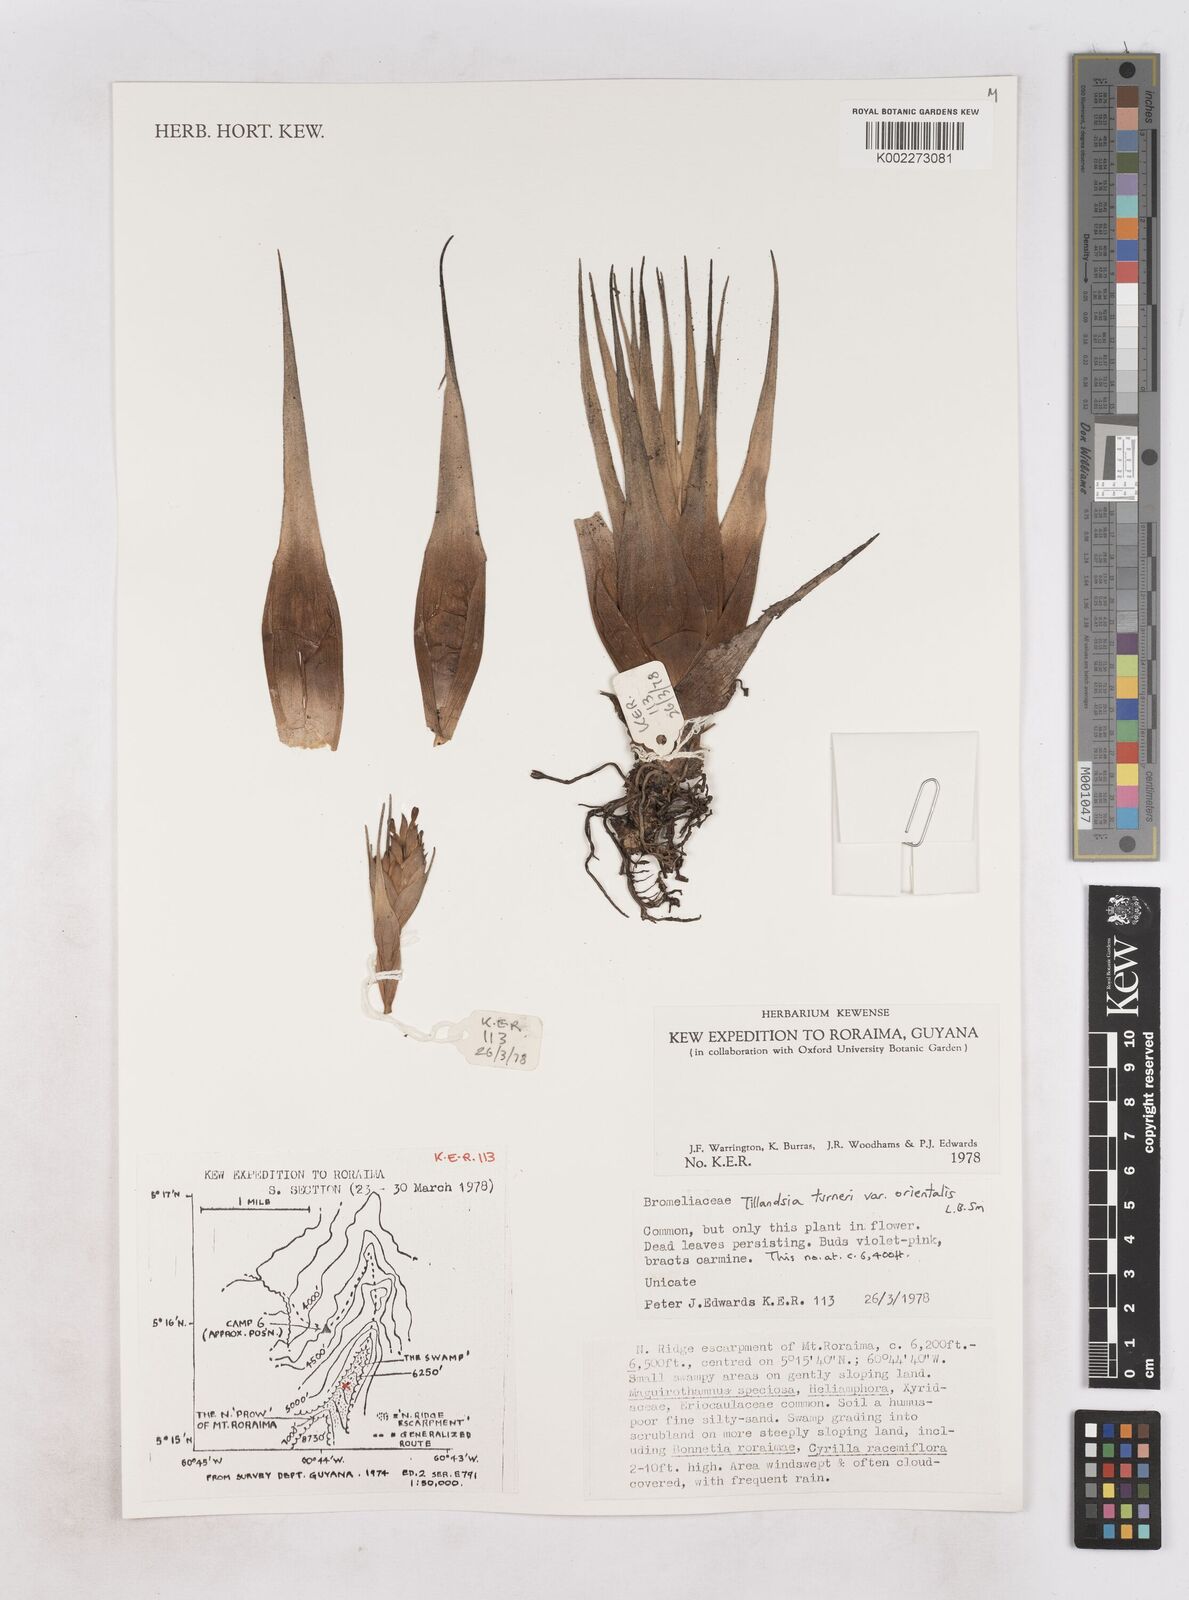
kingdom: Plantae
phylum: Tracheophyta
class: Liliopsida
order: Poales
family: Bromeliaceae
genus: Tillandsia
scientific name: Tillandsia turneri
